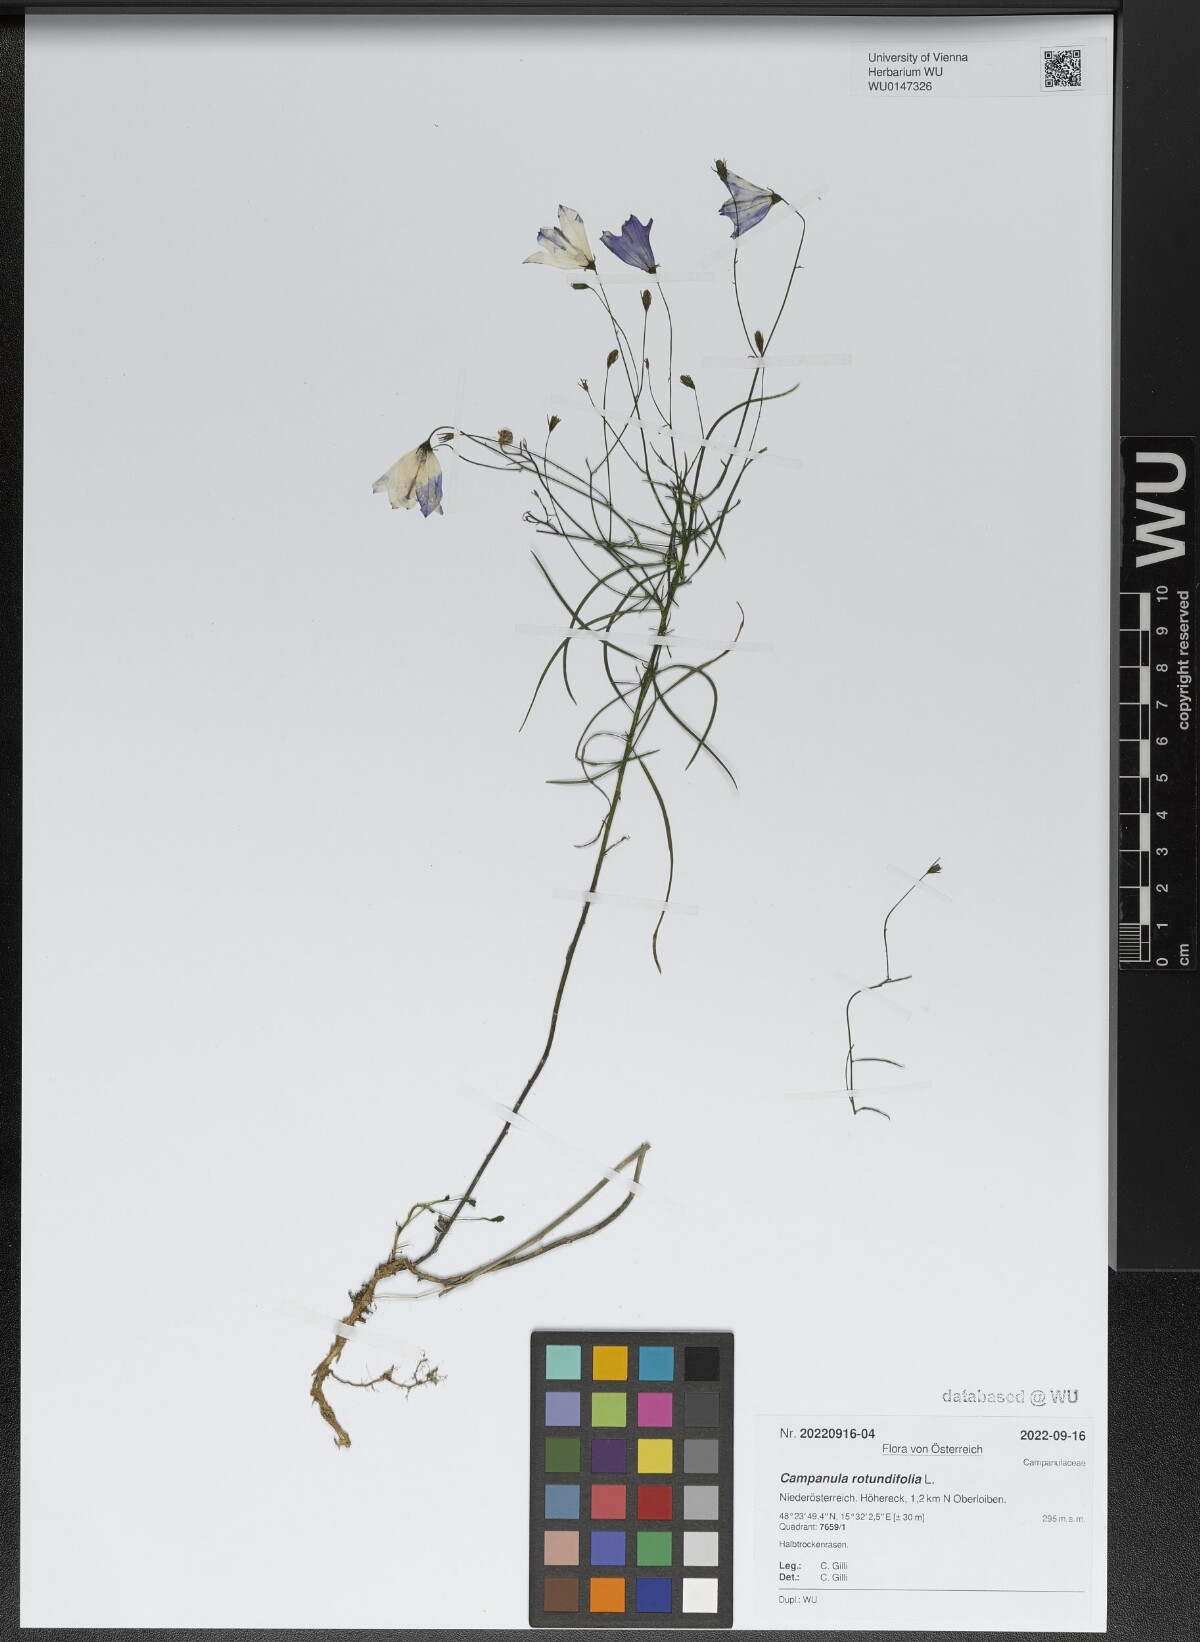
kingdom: Plantae
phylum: Tracheophyta
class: Magnoliopsida
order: Asterales
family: Campanulaceae
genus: Campanula
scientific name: Campanula rotundifolia
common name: Harebell
